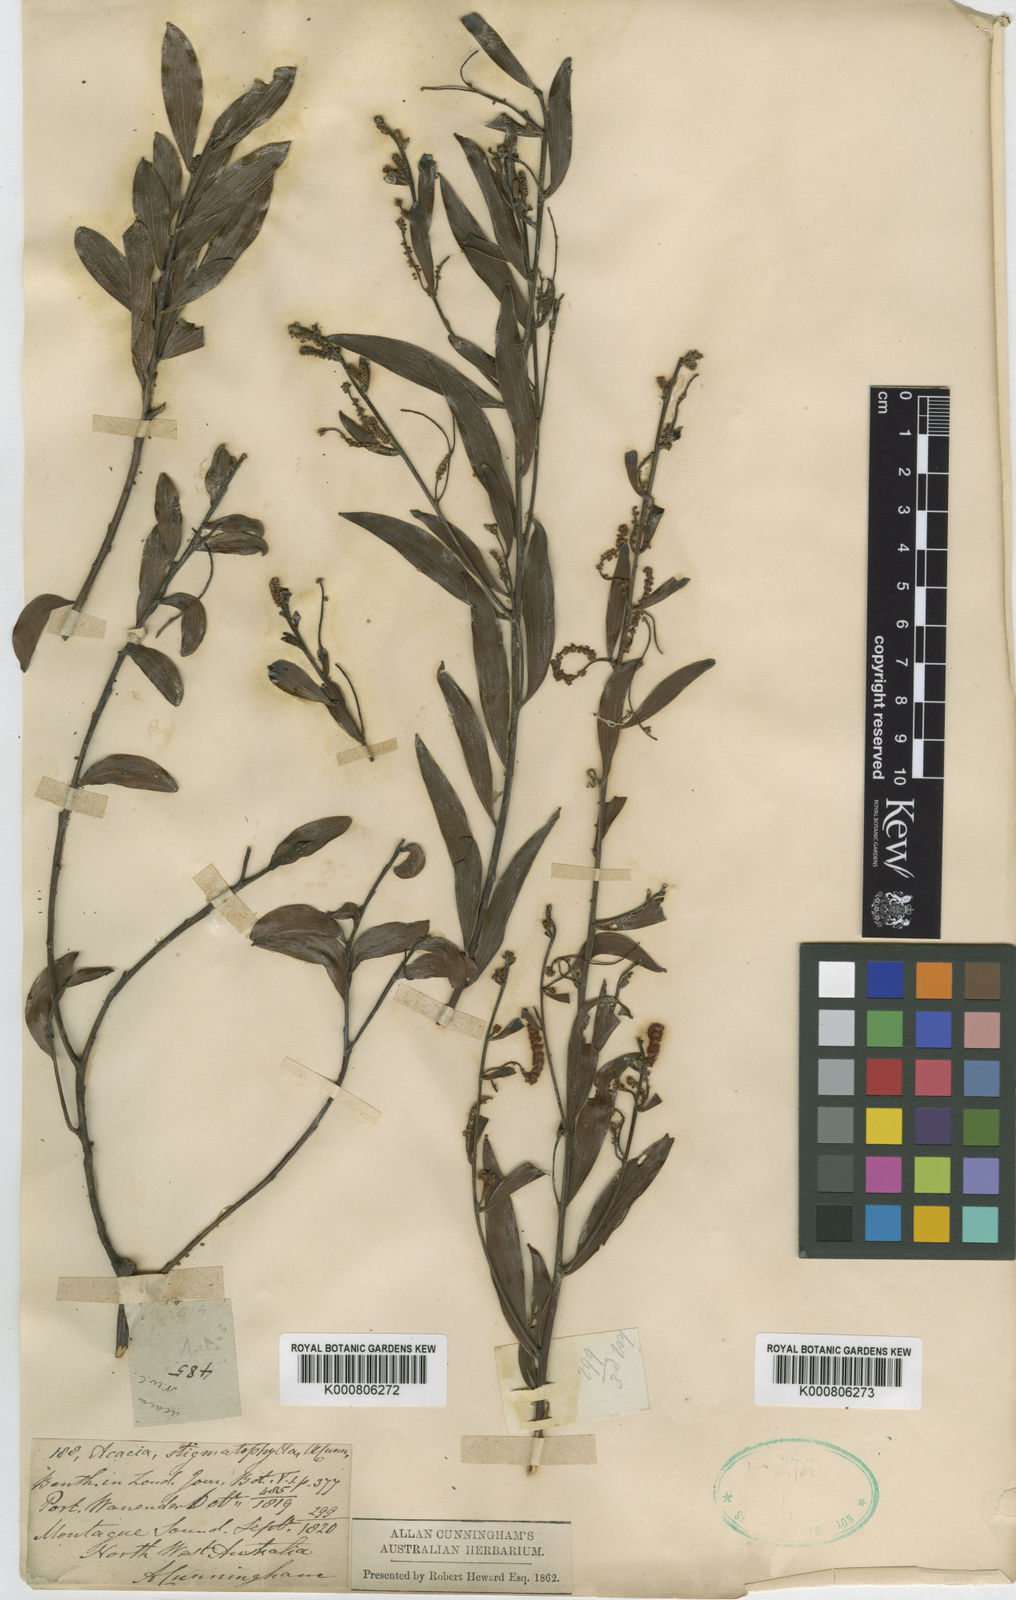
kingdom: Plantae
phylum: Tracheophyta
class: Magnoliopsida
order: Fabales
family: Fabaceae
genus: Acacia
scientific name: Acacia stigmatophylla
